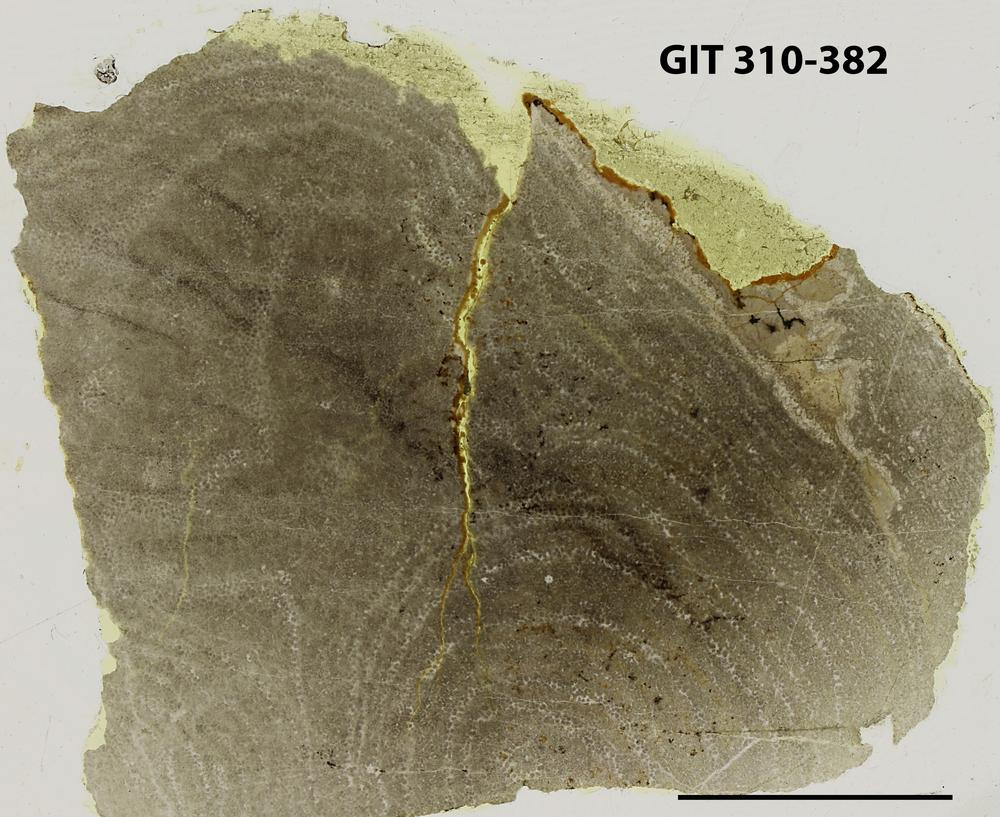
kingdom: Animalia
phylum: Porifera
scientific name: Porifera
